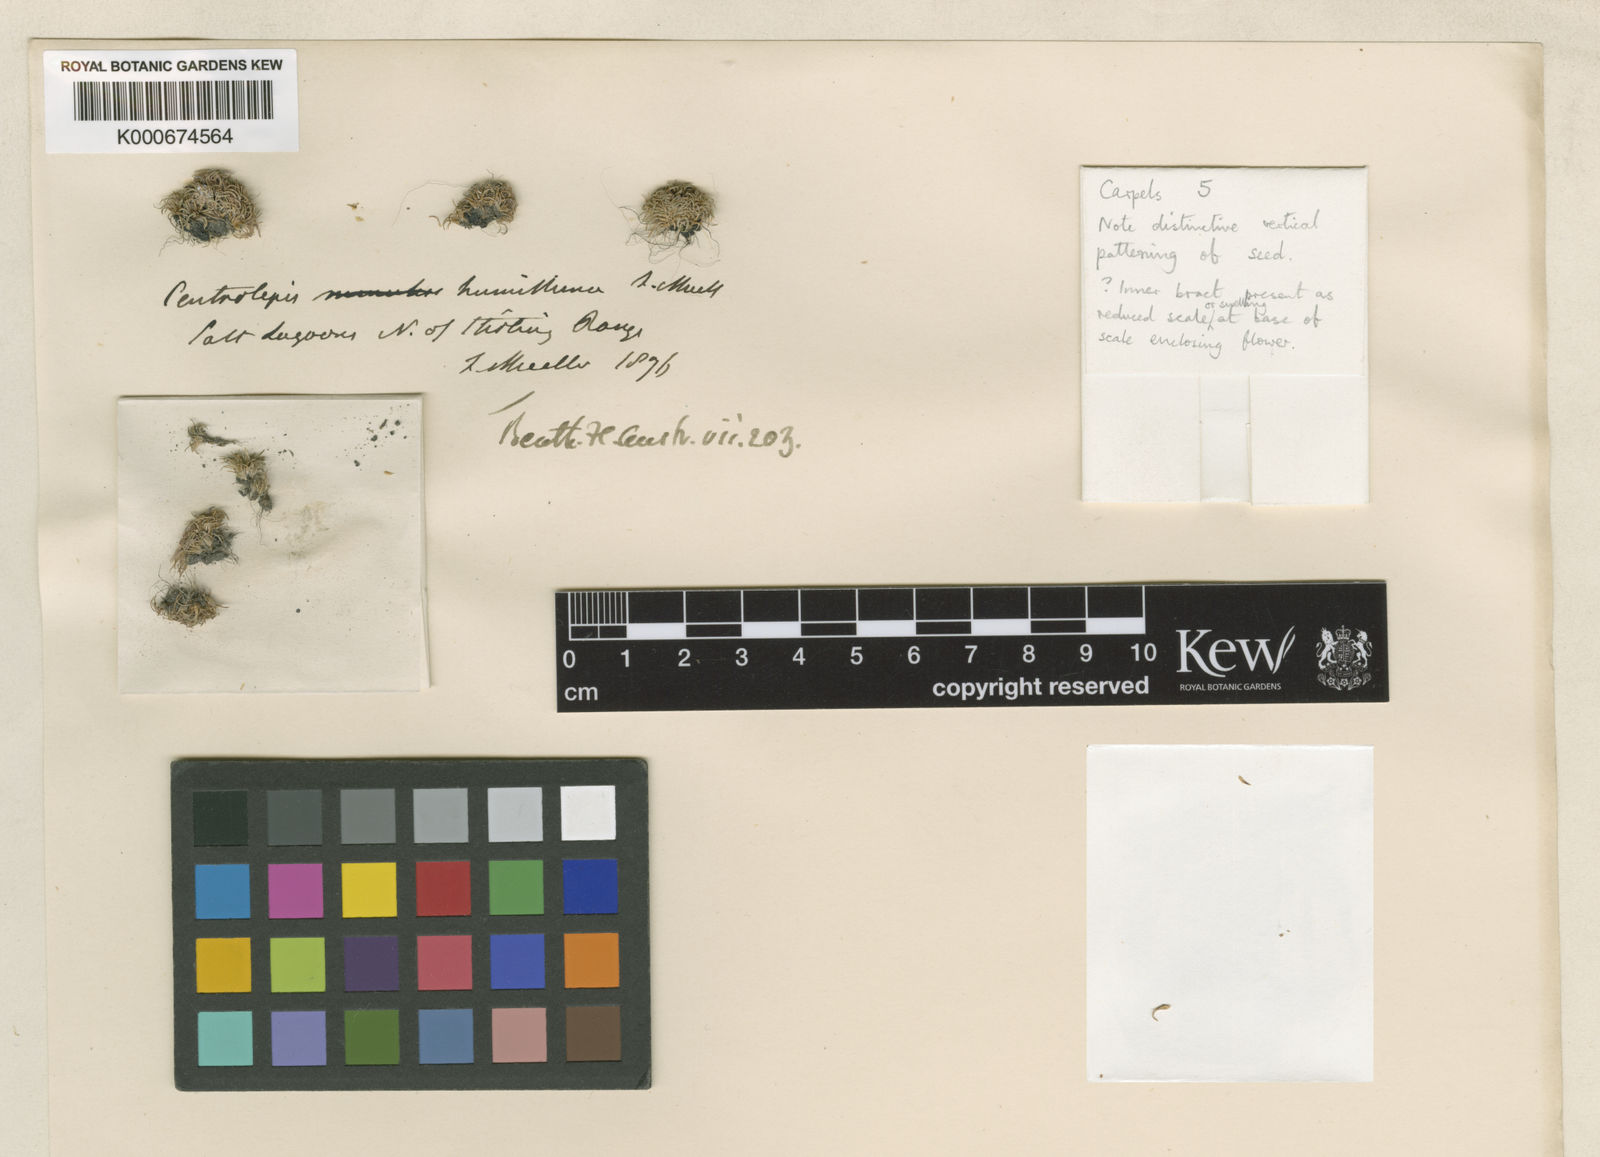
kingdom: Plantae
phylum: Tracheophyta
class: Liliopsida
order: Poales
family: Restionaceae
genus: Centrolepis
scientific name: Centrolepis humillima
